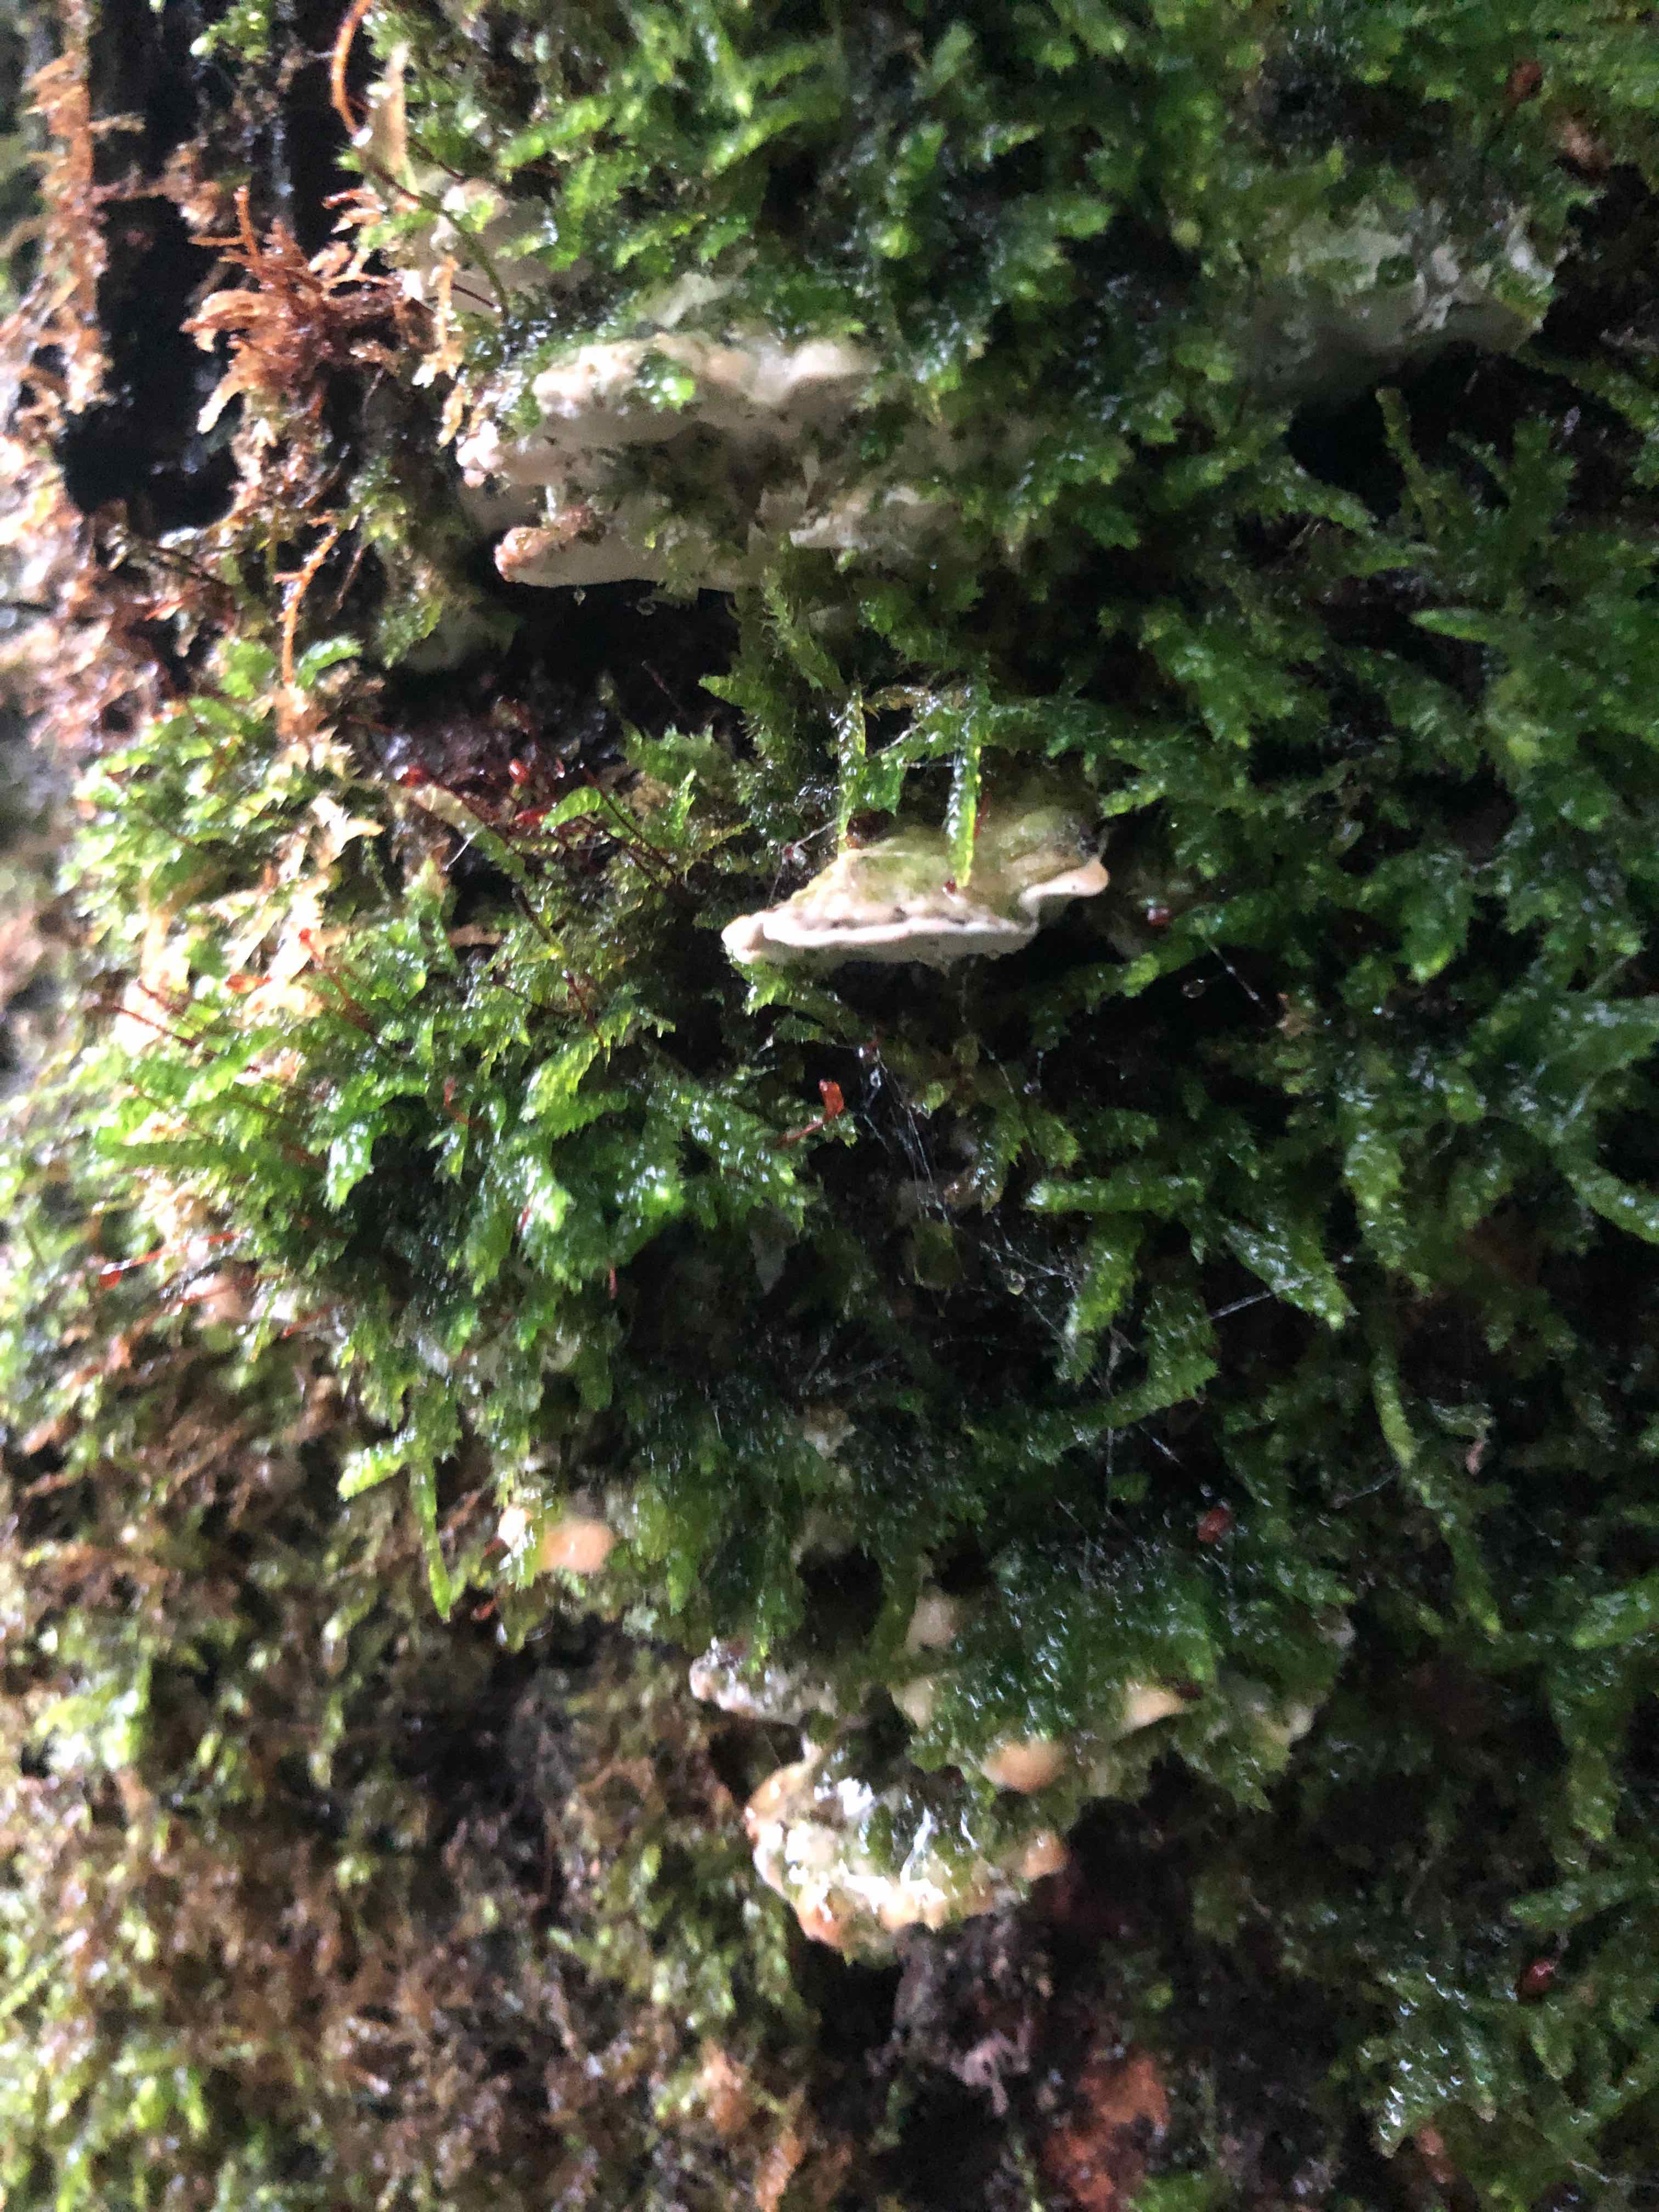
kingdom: Fungi
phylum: Basidiomycota
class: Agaricomycetes
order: Hymenochaetales
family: Oxyporaceae
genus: Oxyporus
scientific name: Oxyporus populinus
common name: sammenvokset trylleporesvamp
